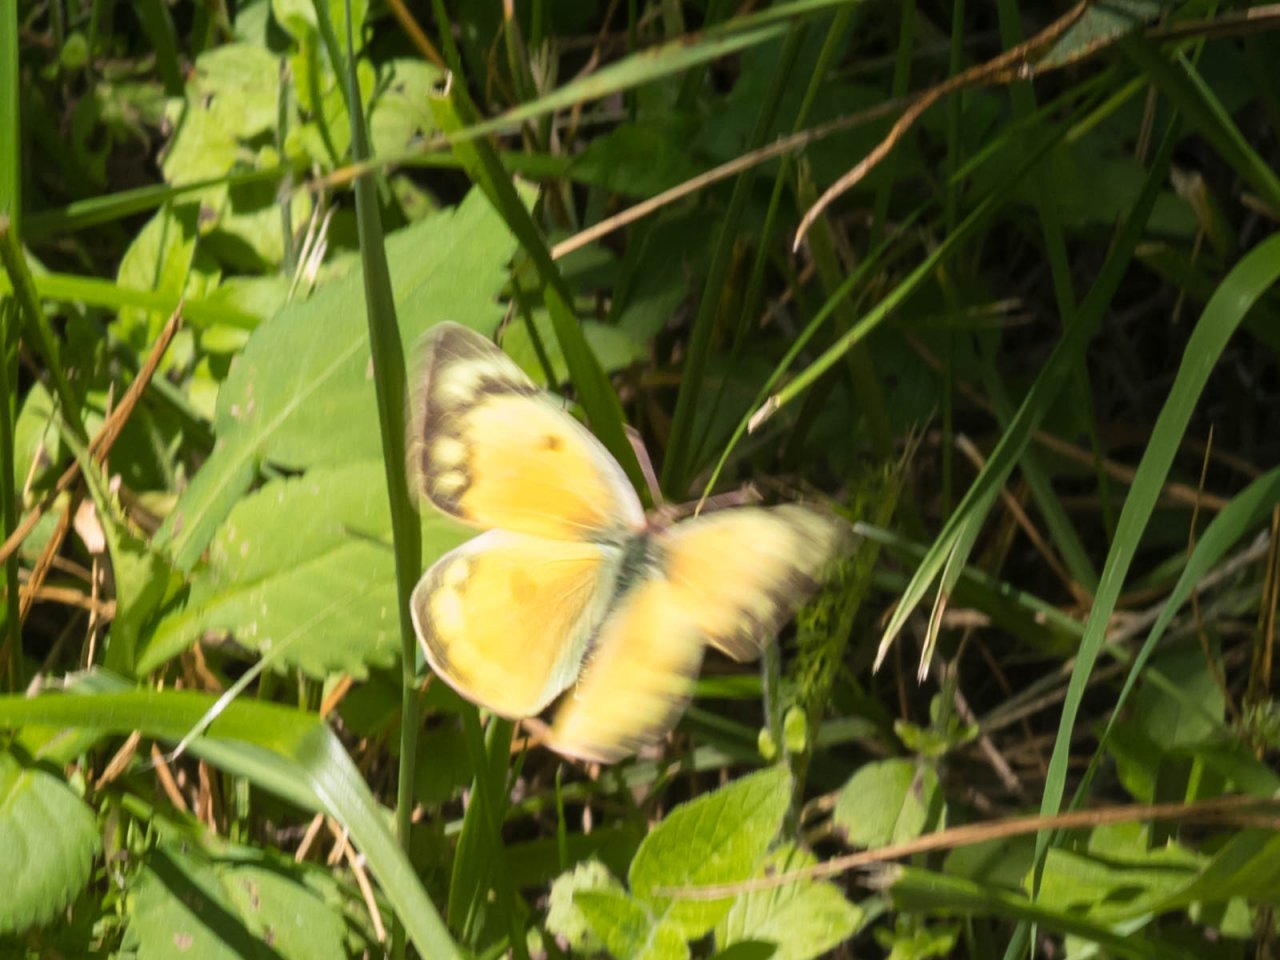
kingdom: Animalia
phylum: Arthropoda
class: Insecta
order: Lepidoptera
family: Pieridae
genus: Colias
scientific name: Colias eurytheme
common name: Orange Sulphur
